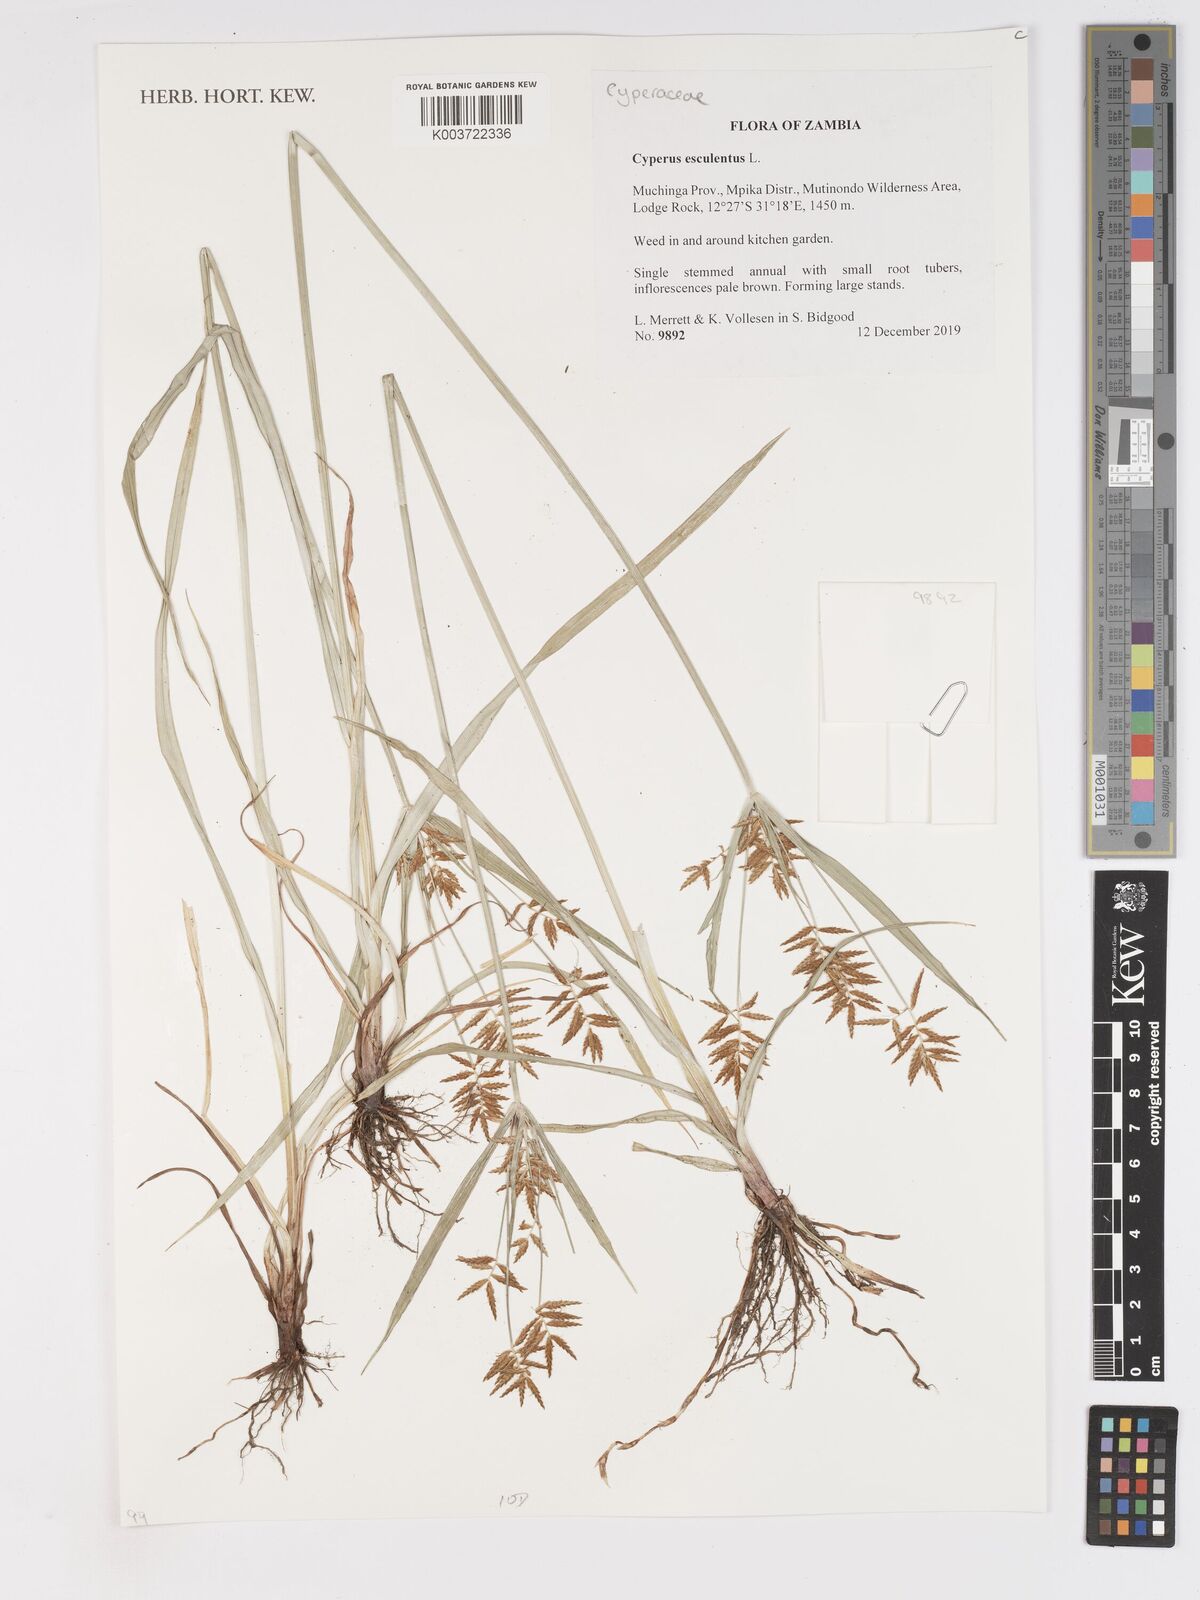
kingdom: Plantae
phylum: Tracheophyta
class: Liliopsida
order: Poales
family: Cyperaceae
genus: Cyperus
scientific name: Cyperus esculentus
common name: Yellow nutsedge
